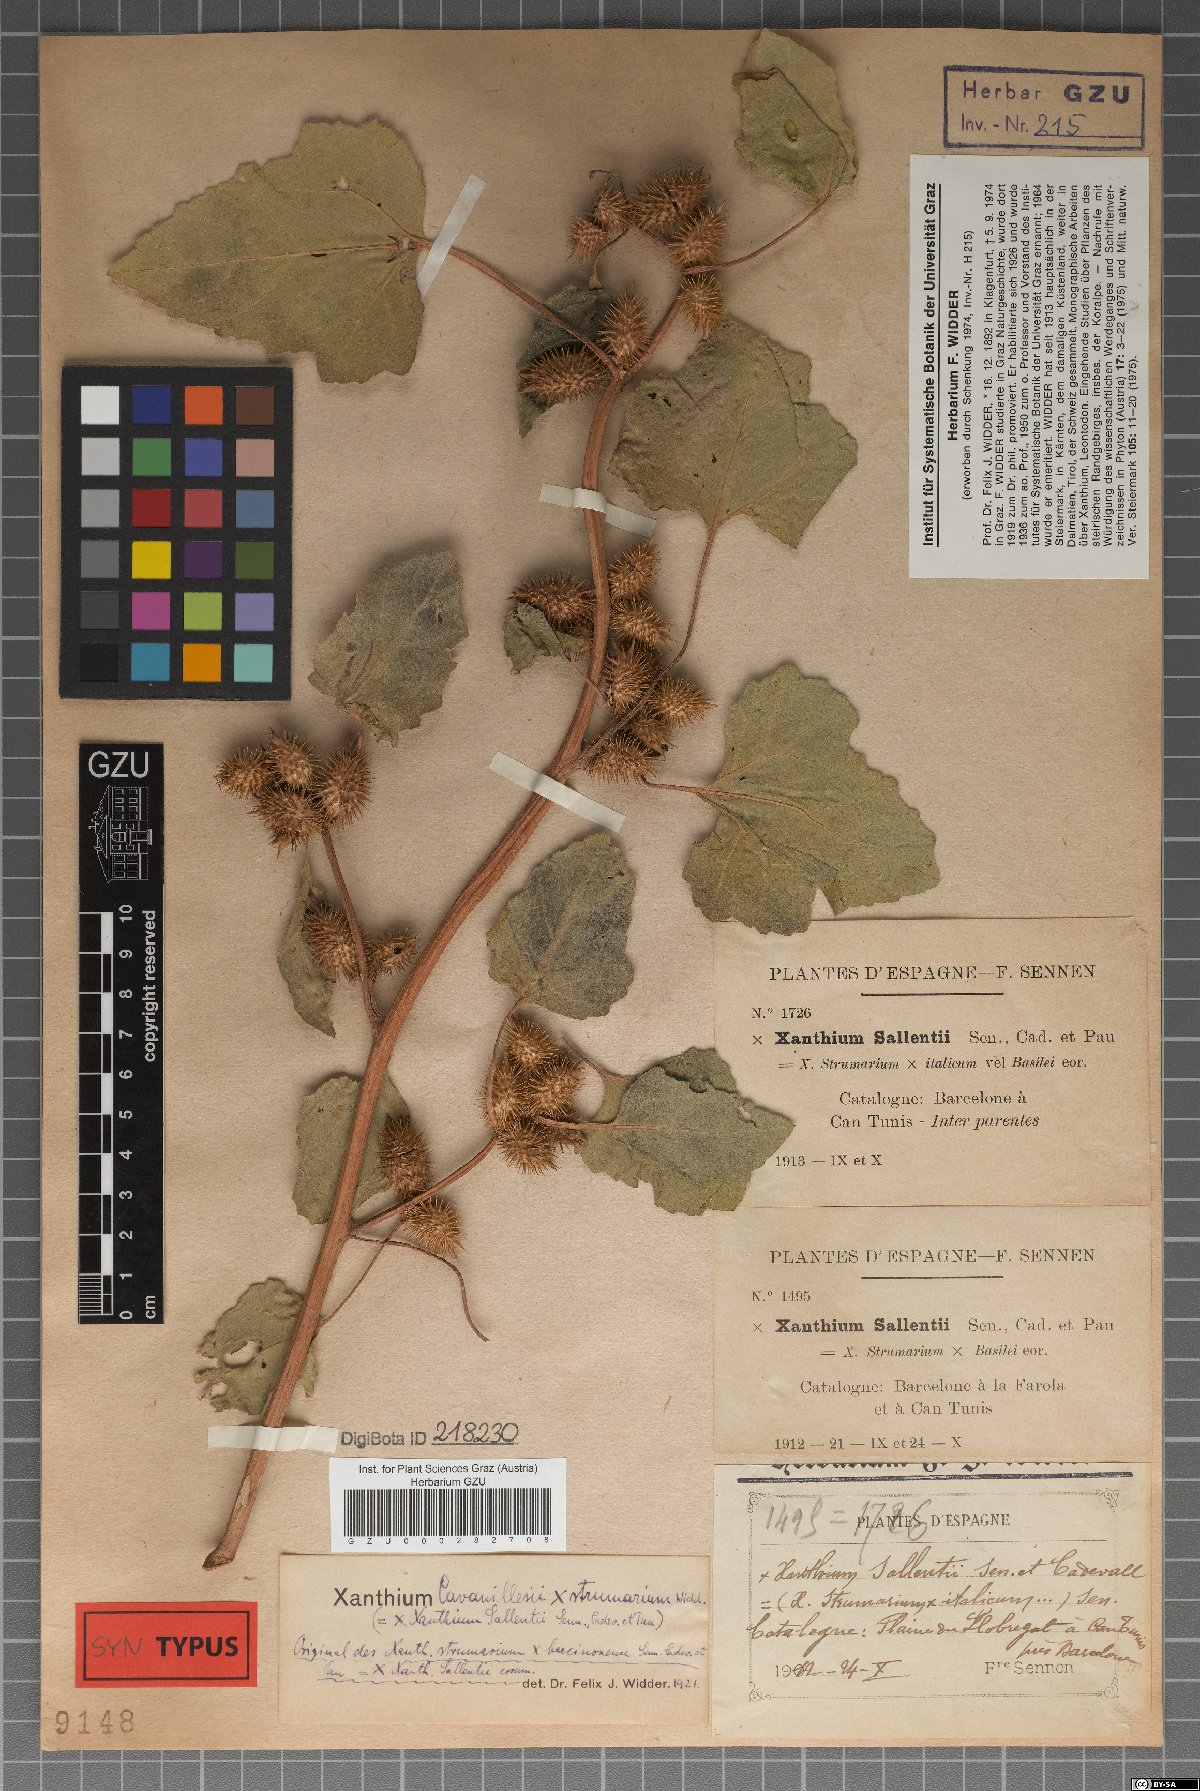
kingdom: Plantae
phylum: Tracheophyta
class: Magnoliopsida
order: Asterales
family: Asteraceae
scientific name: Asteraceae
